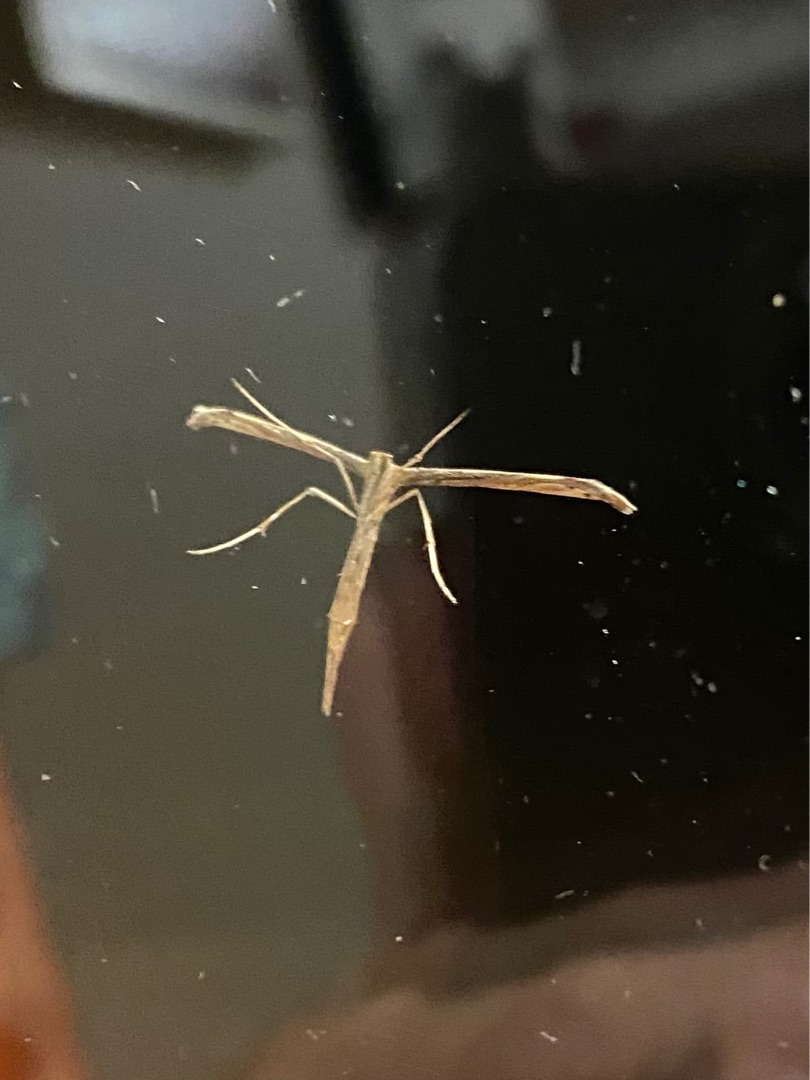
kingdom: Animalia
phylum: Arthropoda
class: Insecta
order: Lepidoptera
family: Pterophoridae
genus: Emmelina
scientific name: Emmelina monodactyla
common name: Snerlefjermøl
